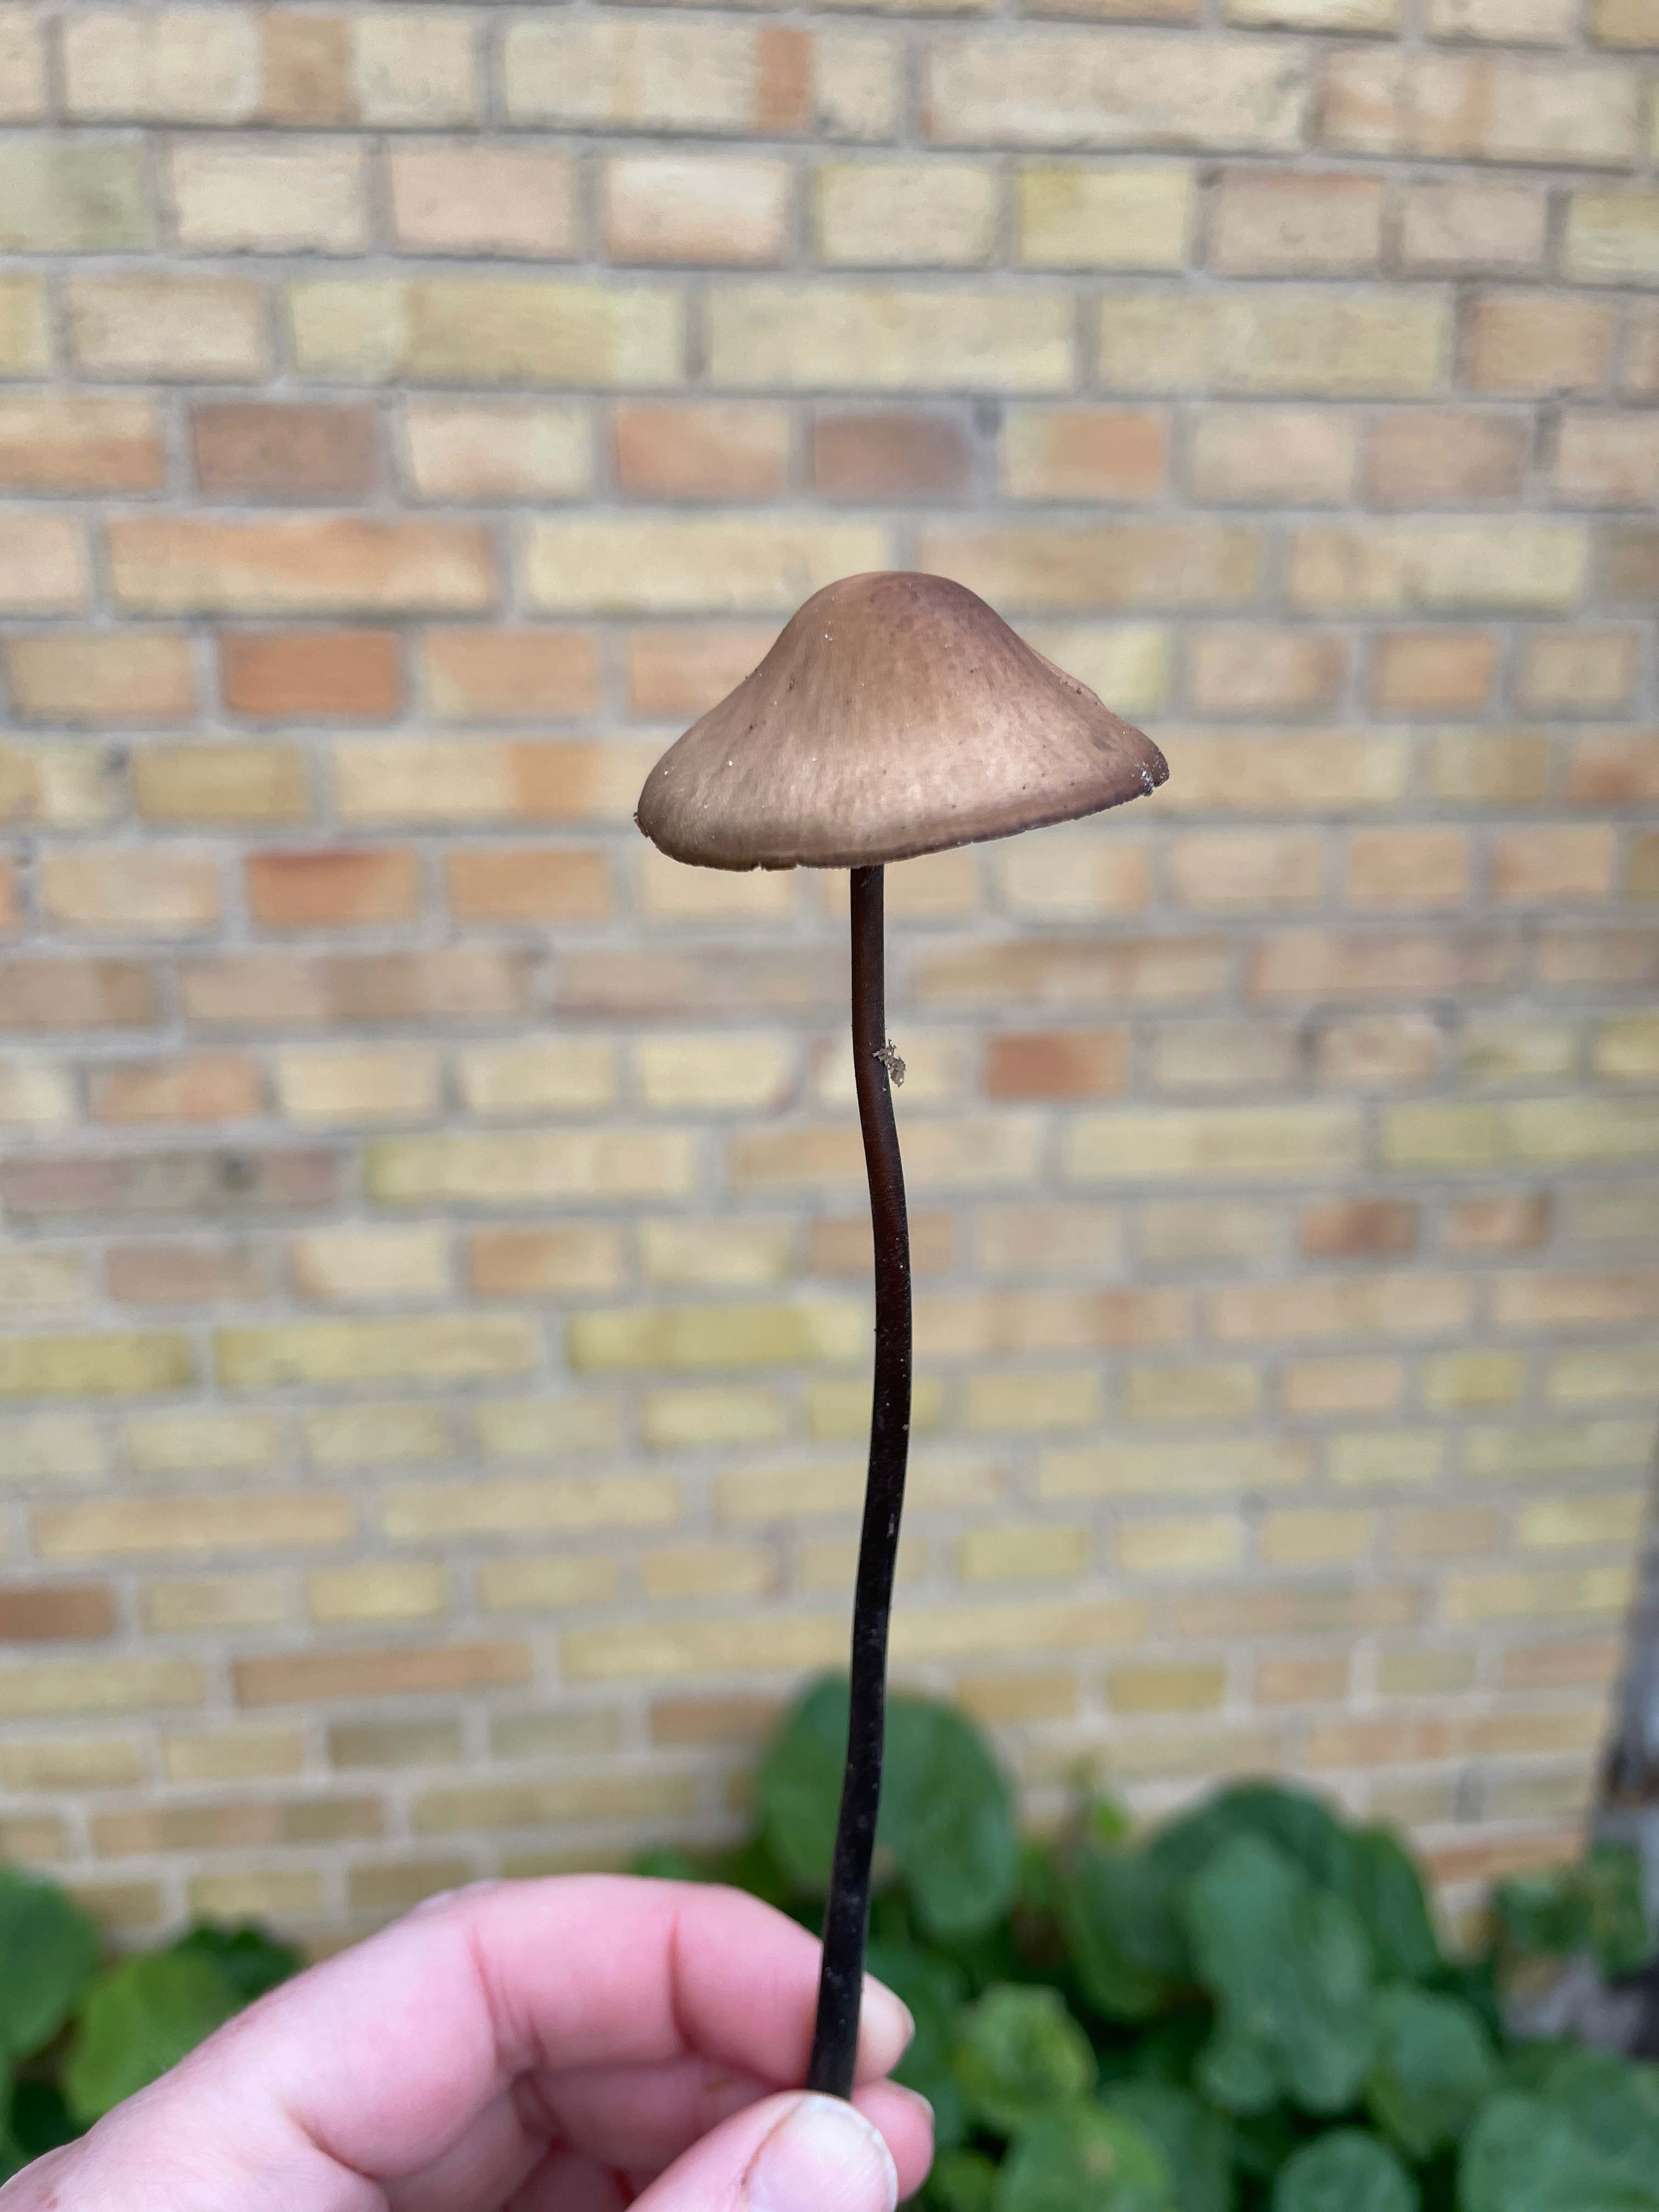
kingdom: Fungi
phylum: Basidiomycota
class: Agaricomycetes
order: Agaricales
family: Omphalotaceae
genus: Mycetinis
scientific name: Mycetinis alliaceus
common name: stor løghat
